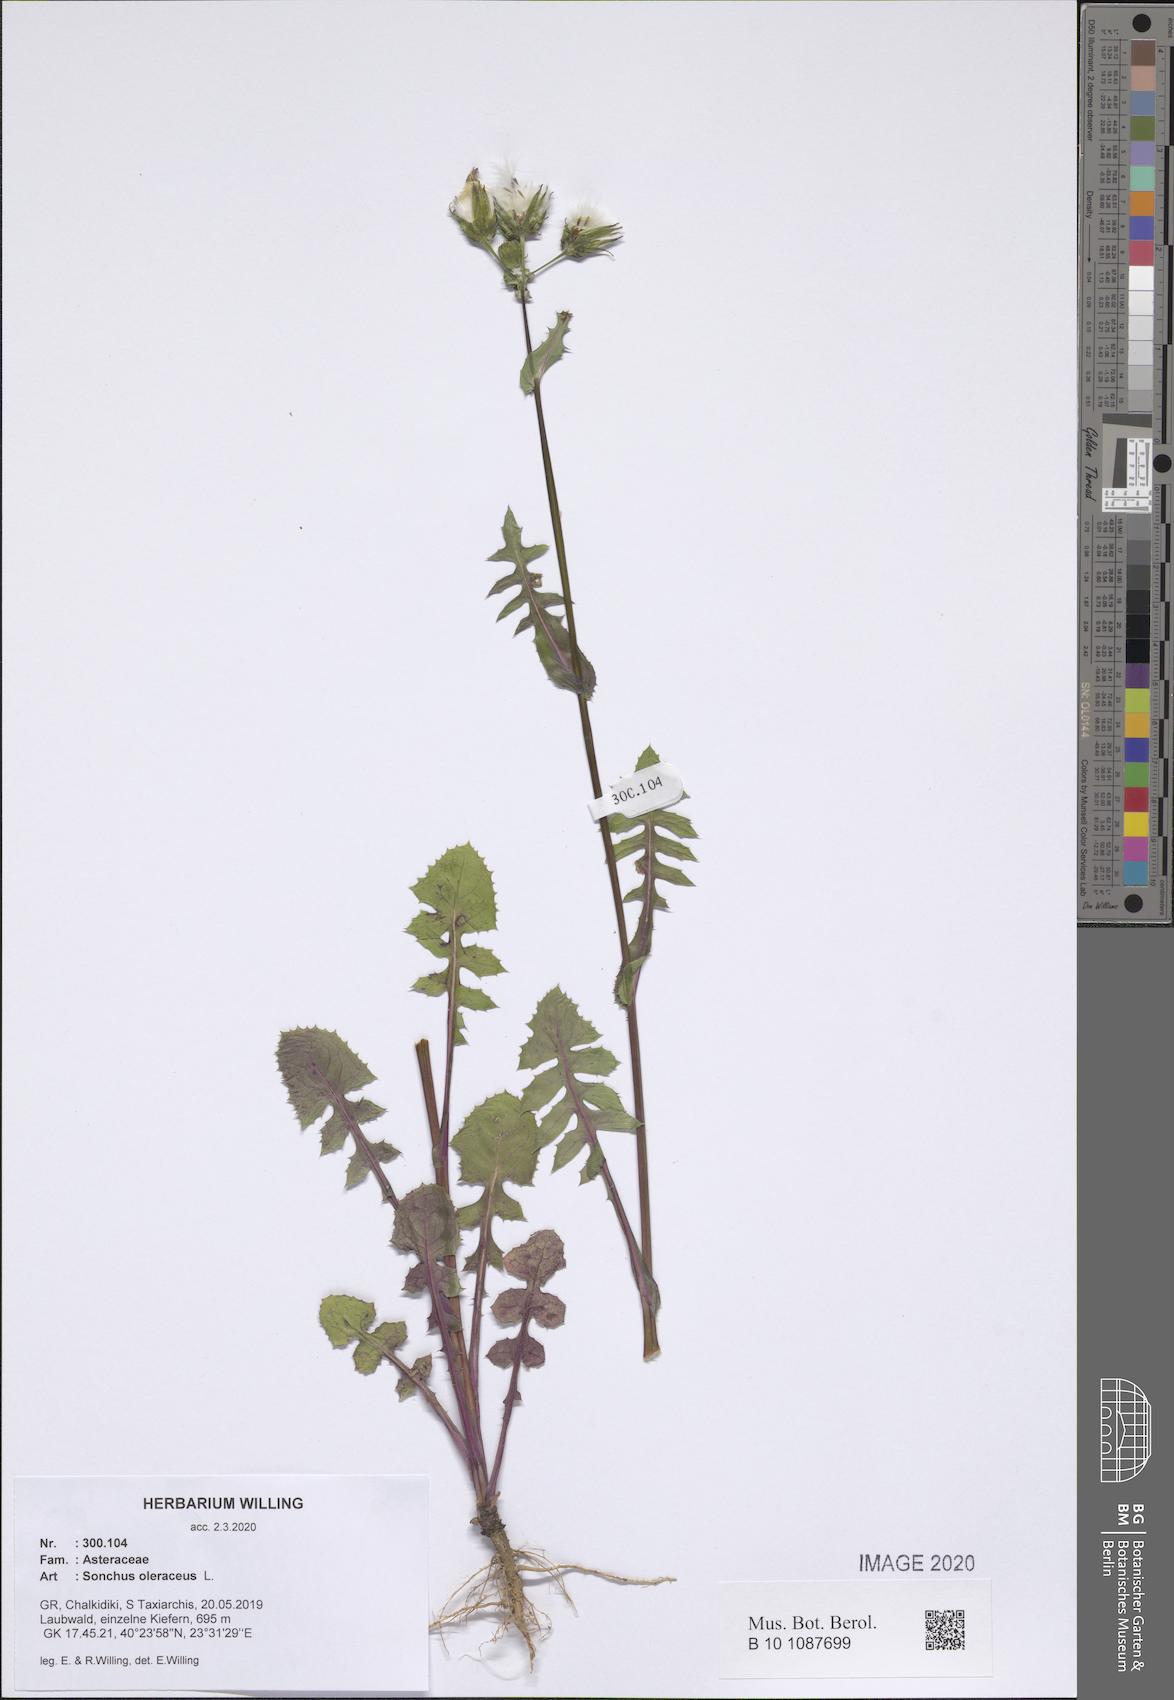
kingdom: Plantae
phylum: Tracheophyta
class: Magnoliopsida
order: Asterales
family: Asteraceae
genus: Sonchus
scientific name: Sonchus oleraceus
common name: Common sowthistle
